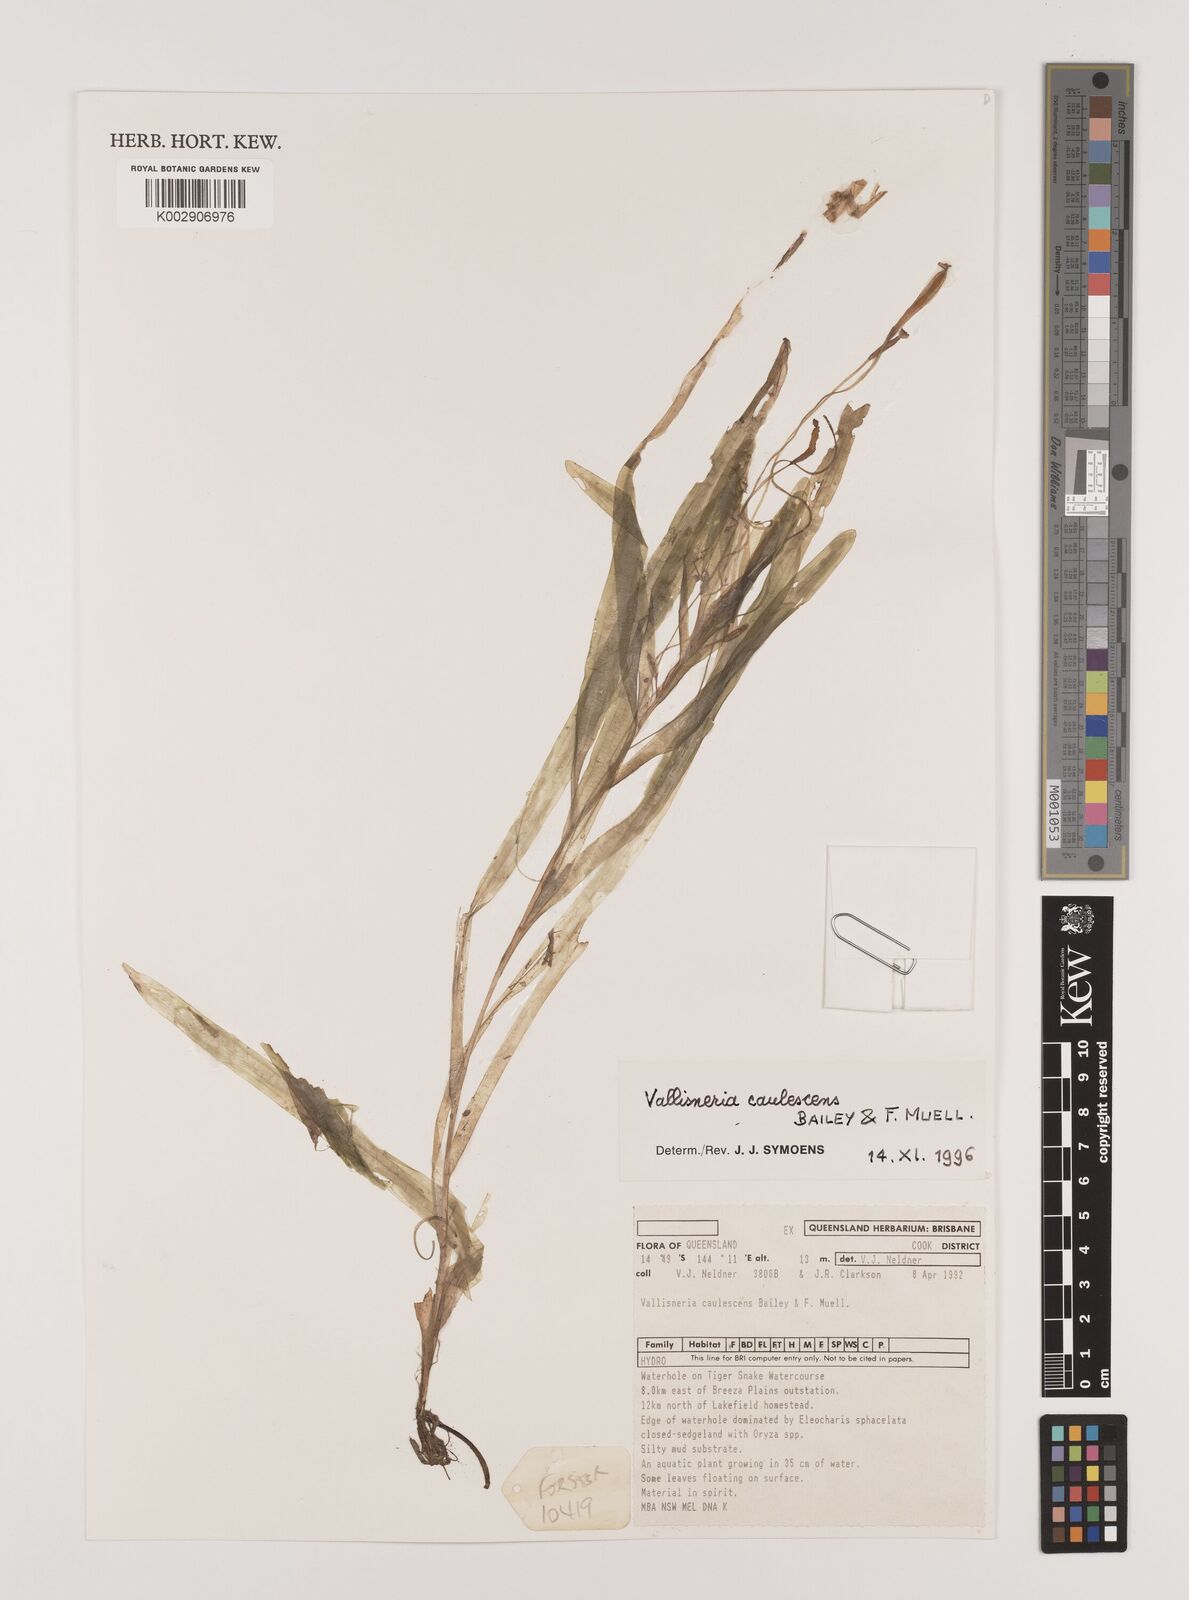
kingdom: Plantae
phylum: Tracheophyta
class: Liliopsida
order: Alismatales
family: Hydrocharitaceae
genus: Vallisneria
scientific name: Vallisneria caulescens
